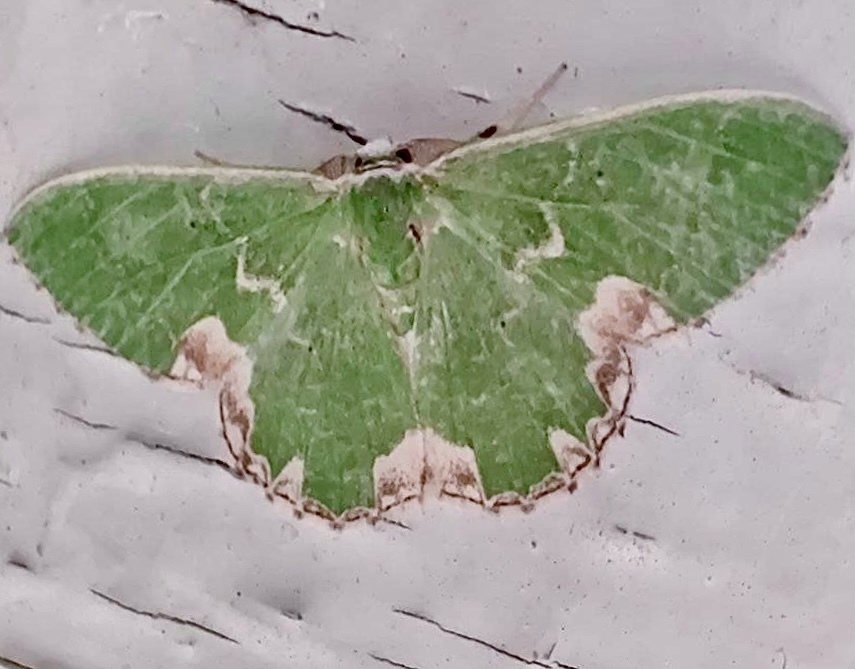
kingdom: Animalia
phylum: Arthropoda
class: Insecta
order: Lepidoptera
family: Geometridae
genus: Comibaena
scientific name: Comibaena bajularia
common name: Blotched emerald
